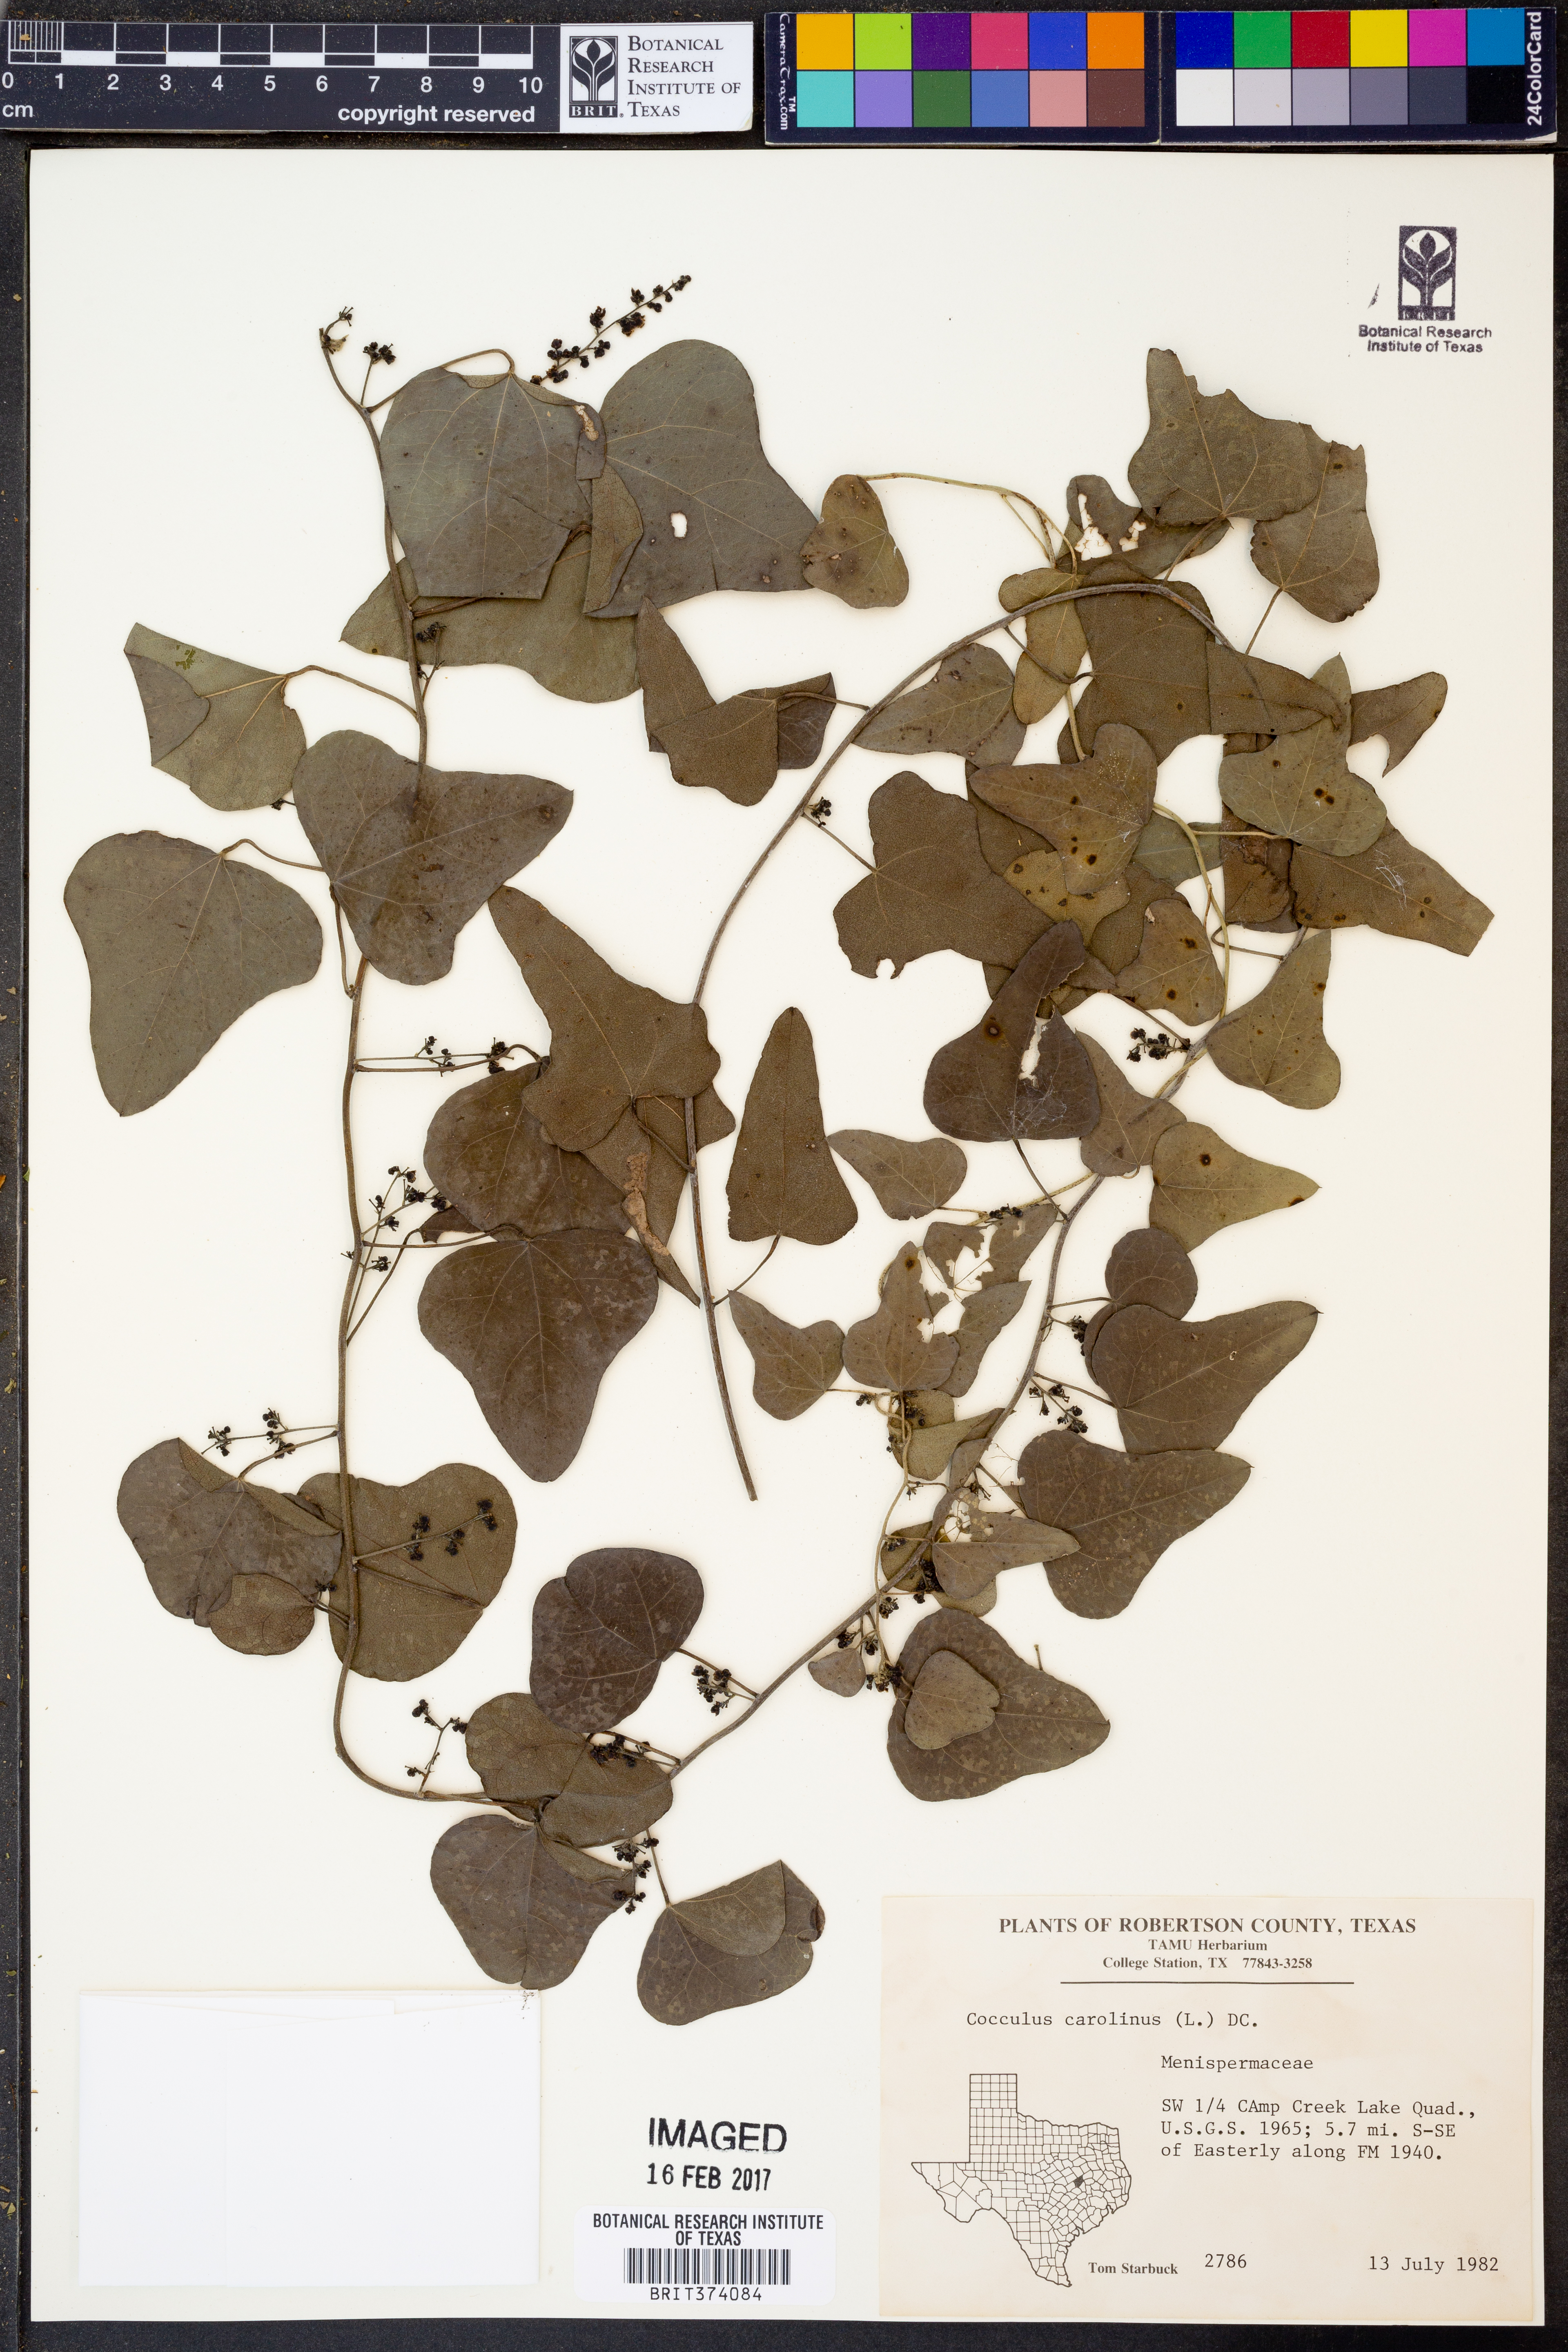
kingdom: Plantae
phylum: Tracheophyta
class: Magnoliopsida
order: Ranunculales
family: Menispermaceae
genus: Cocculus
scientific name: Cocculus carolinus
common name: Carolina moonseed
